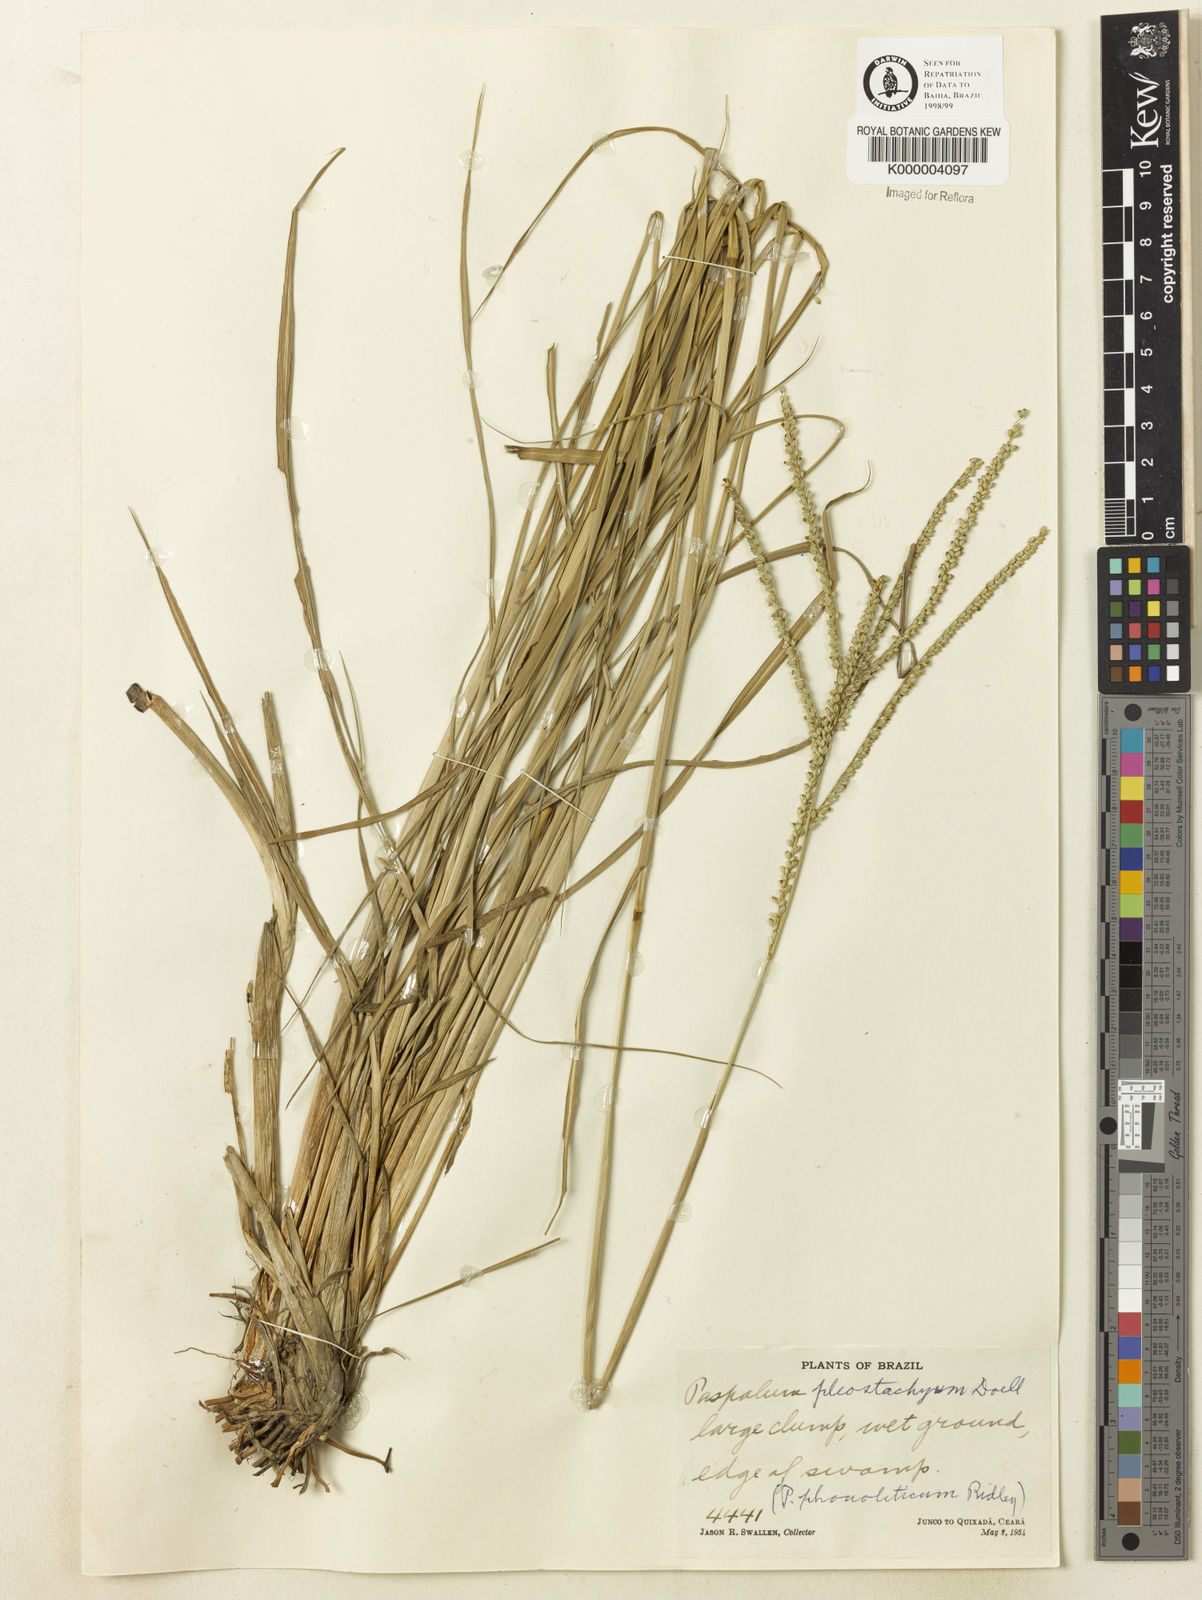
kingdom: Plantae
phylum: Tracheophyta
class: Liliopsida
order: Poales
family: Poaceae
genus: Paspalum
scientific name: Paspalum
